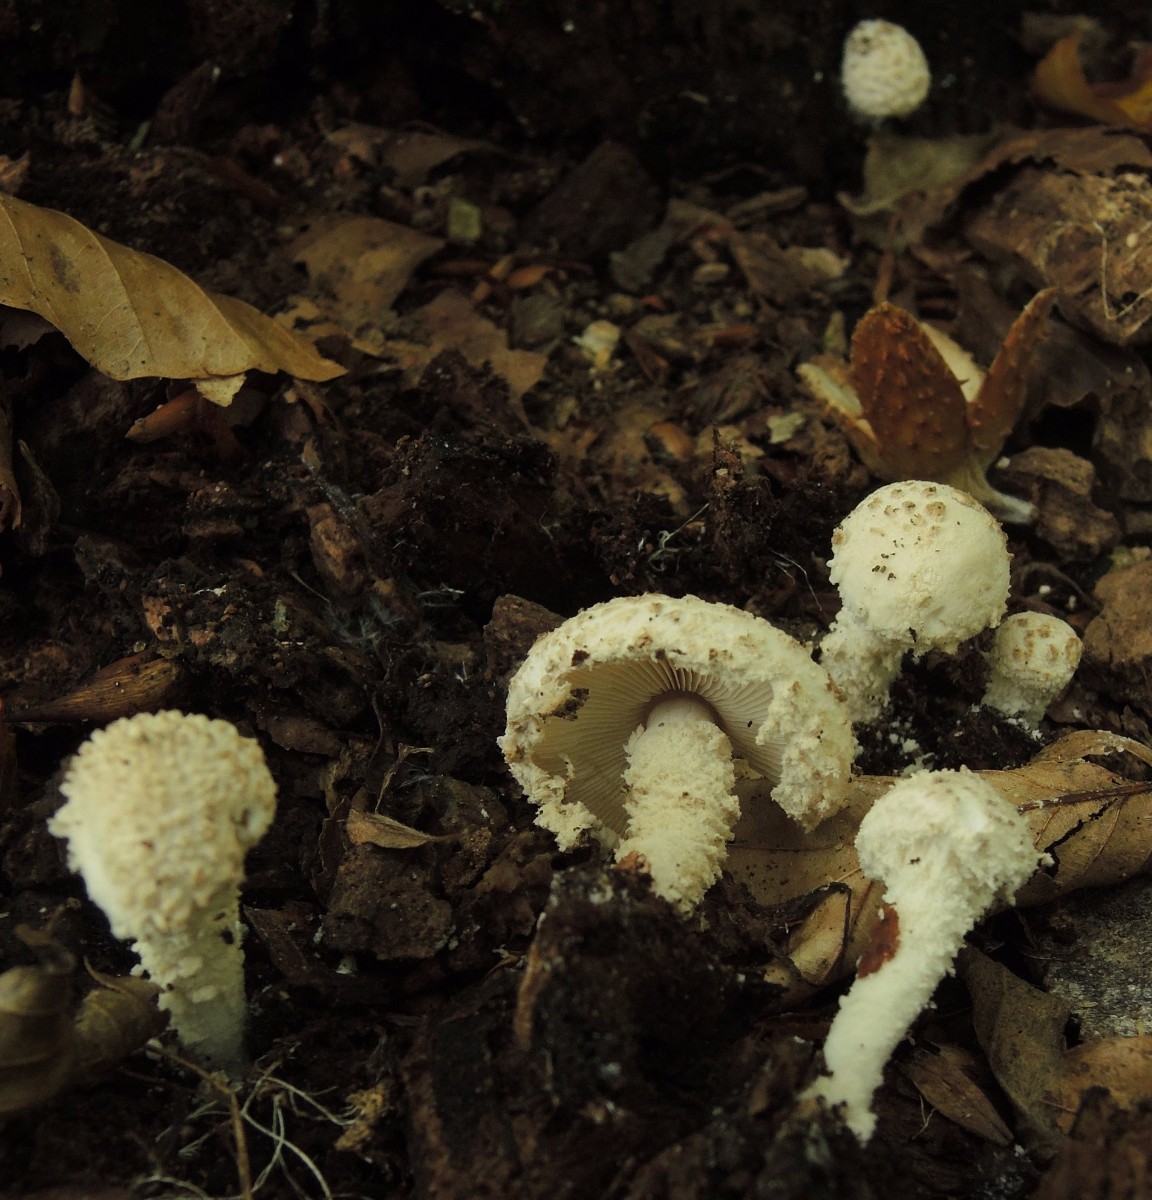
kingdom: Fungi
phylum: Basidiomycota
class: Agaricomycetes
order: Agaricales
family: Agaricaceae
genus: Cystolepiota
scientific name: Cystolepiota adulterina
